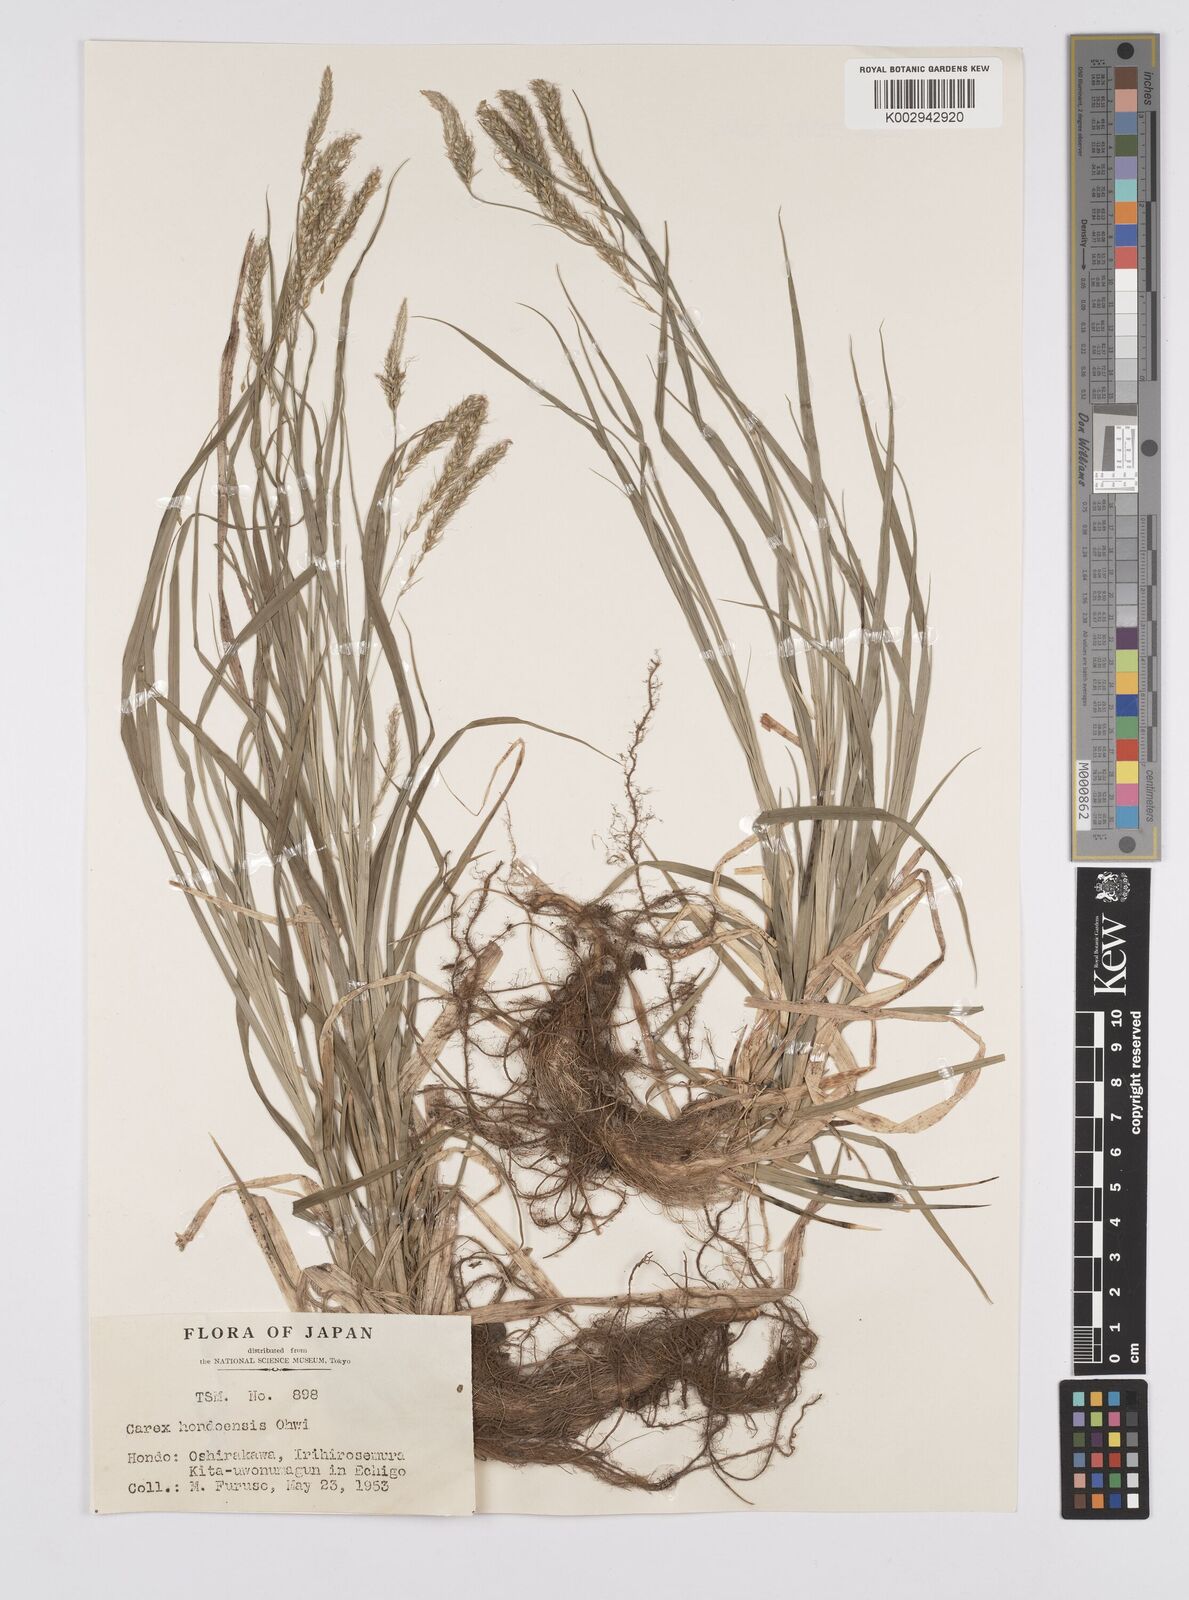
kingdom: Plantae
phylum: Tracheophyta
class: Liliopsida
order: Poales
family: Cyperaceae
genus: Carex
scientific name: Carex hondoensis
